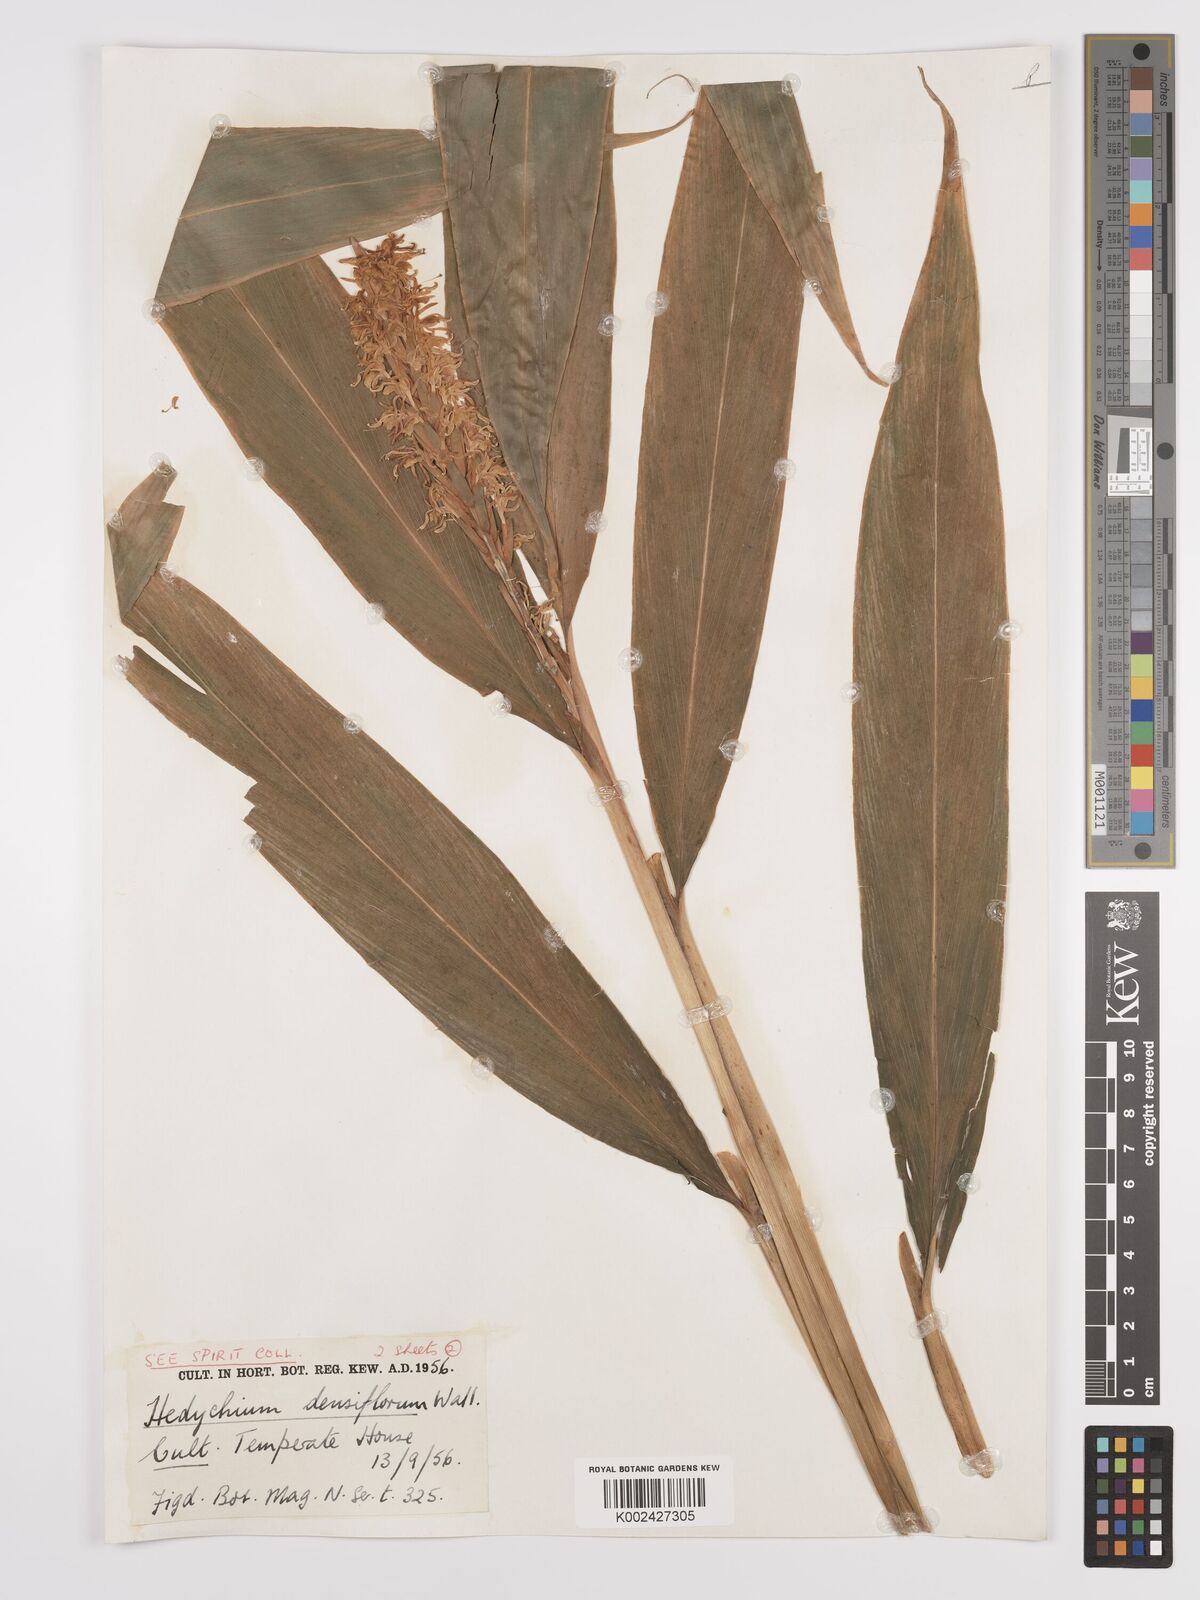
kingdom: Plantae
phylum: Tracheophyta
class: Liliopsida
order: Zingiberales
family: Zingiberaceae
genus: Hedychium
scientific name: Hedychium densiflorum
